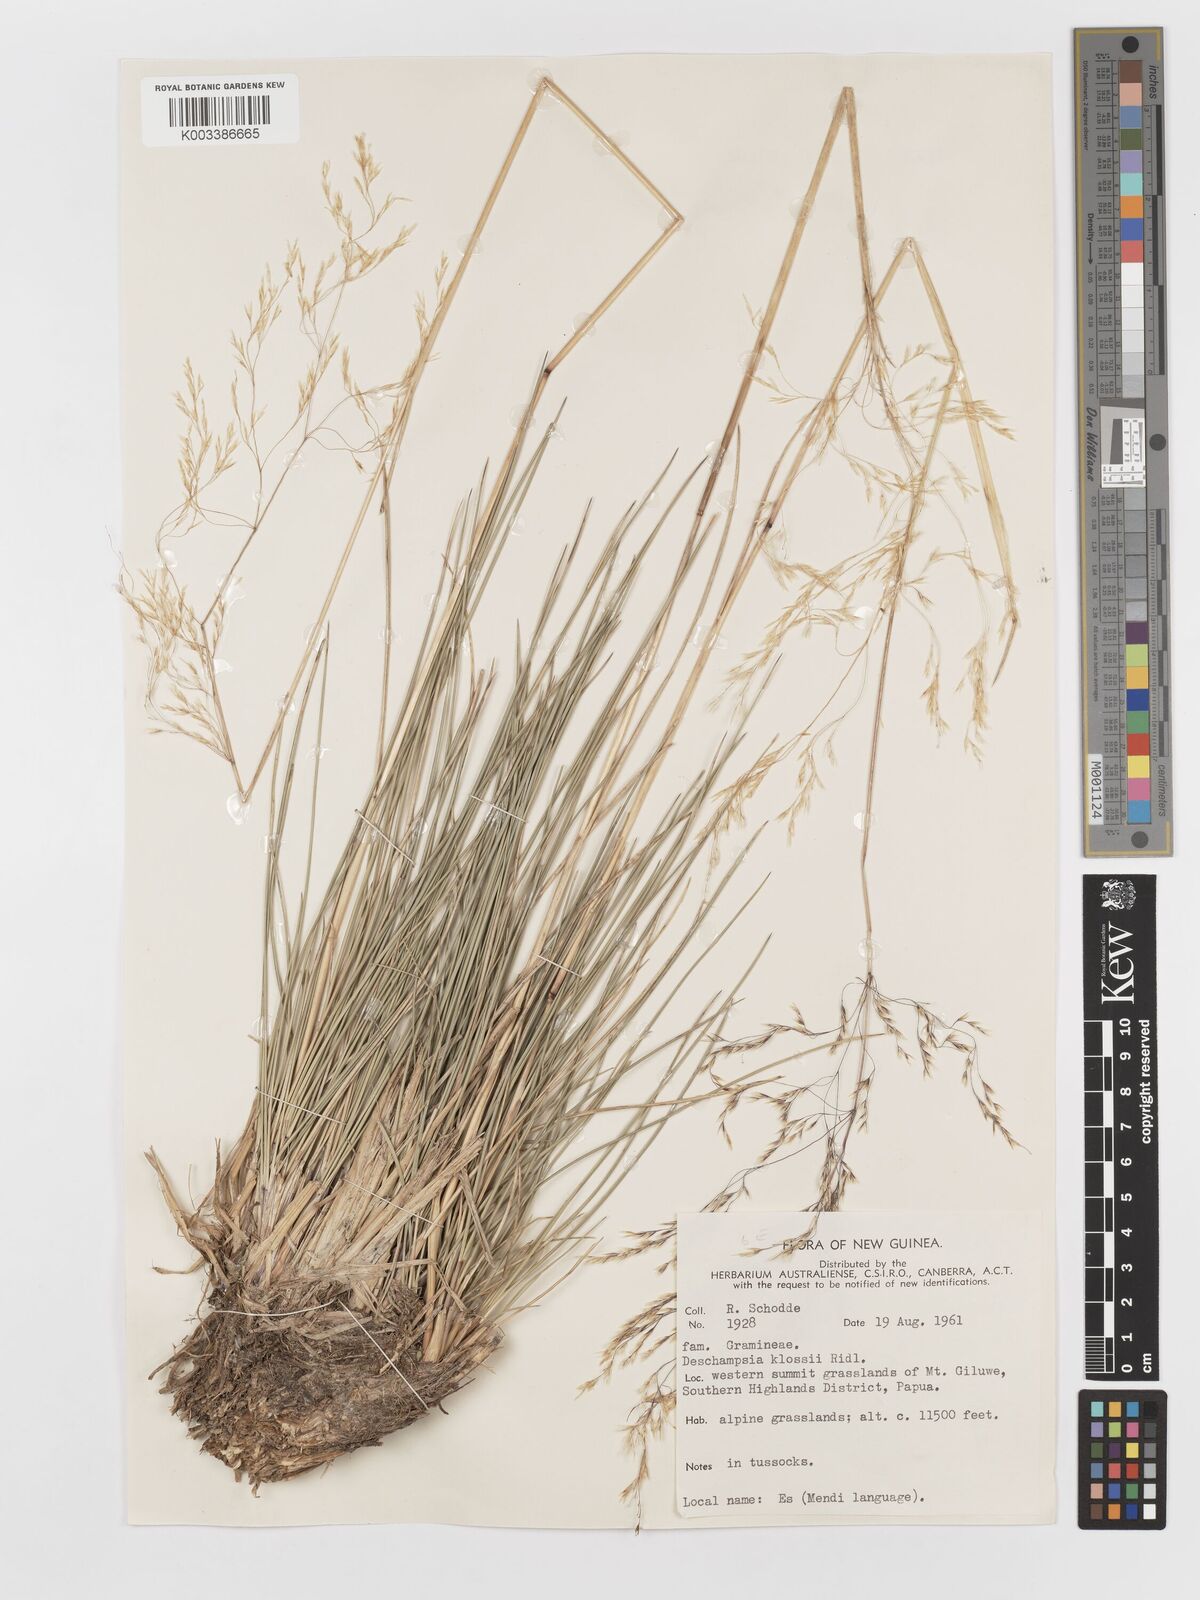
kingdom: Plantae
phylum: Tracheophyta
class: Liliopsida
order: Poales
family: Poaceae
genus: Deschampsia
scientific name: Deschampsia klossii
